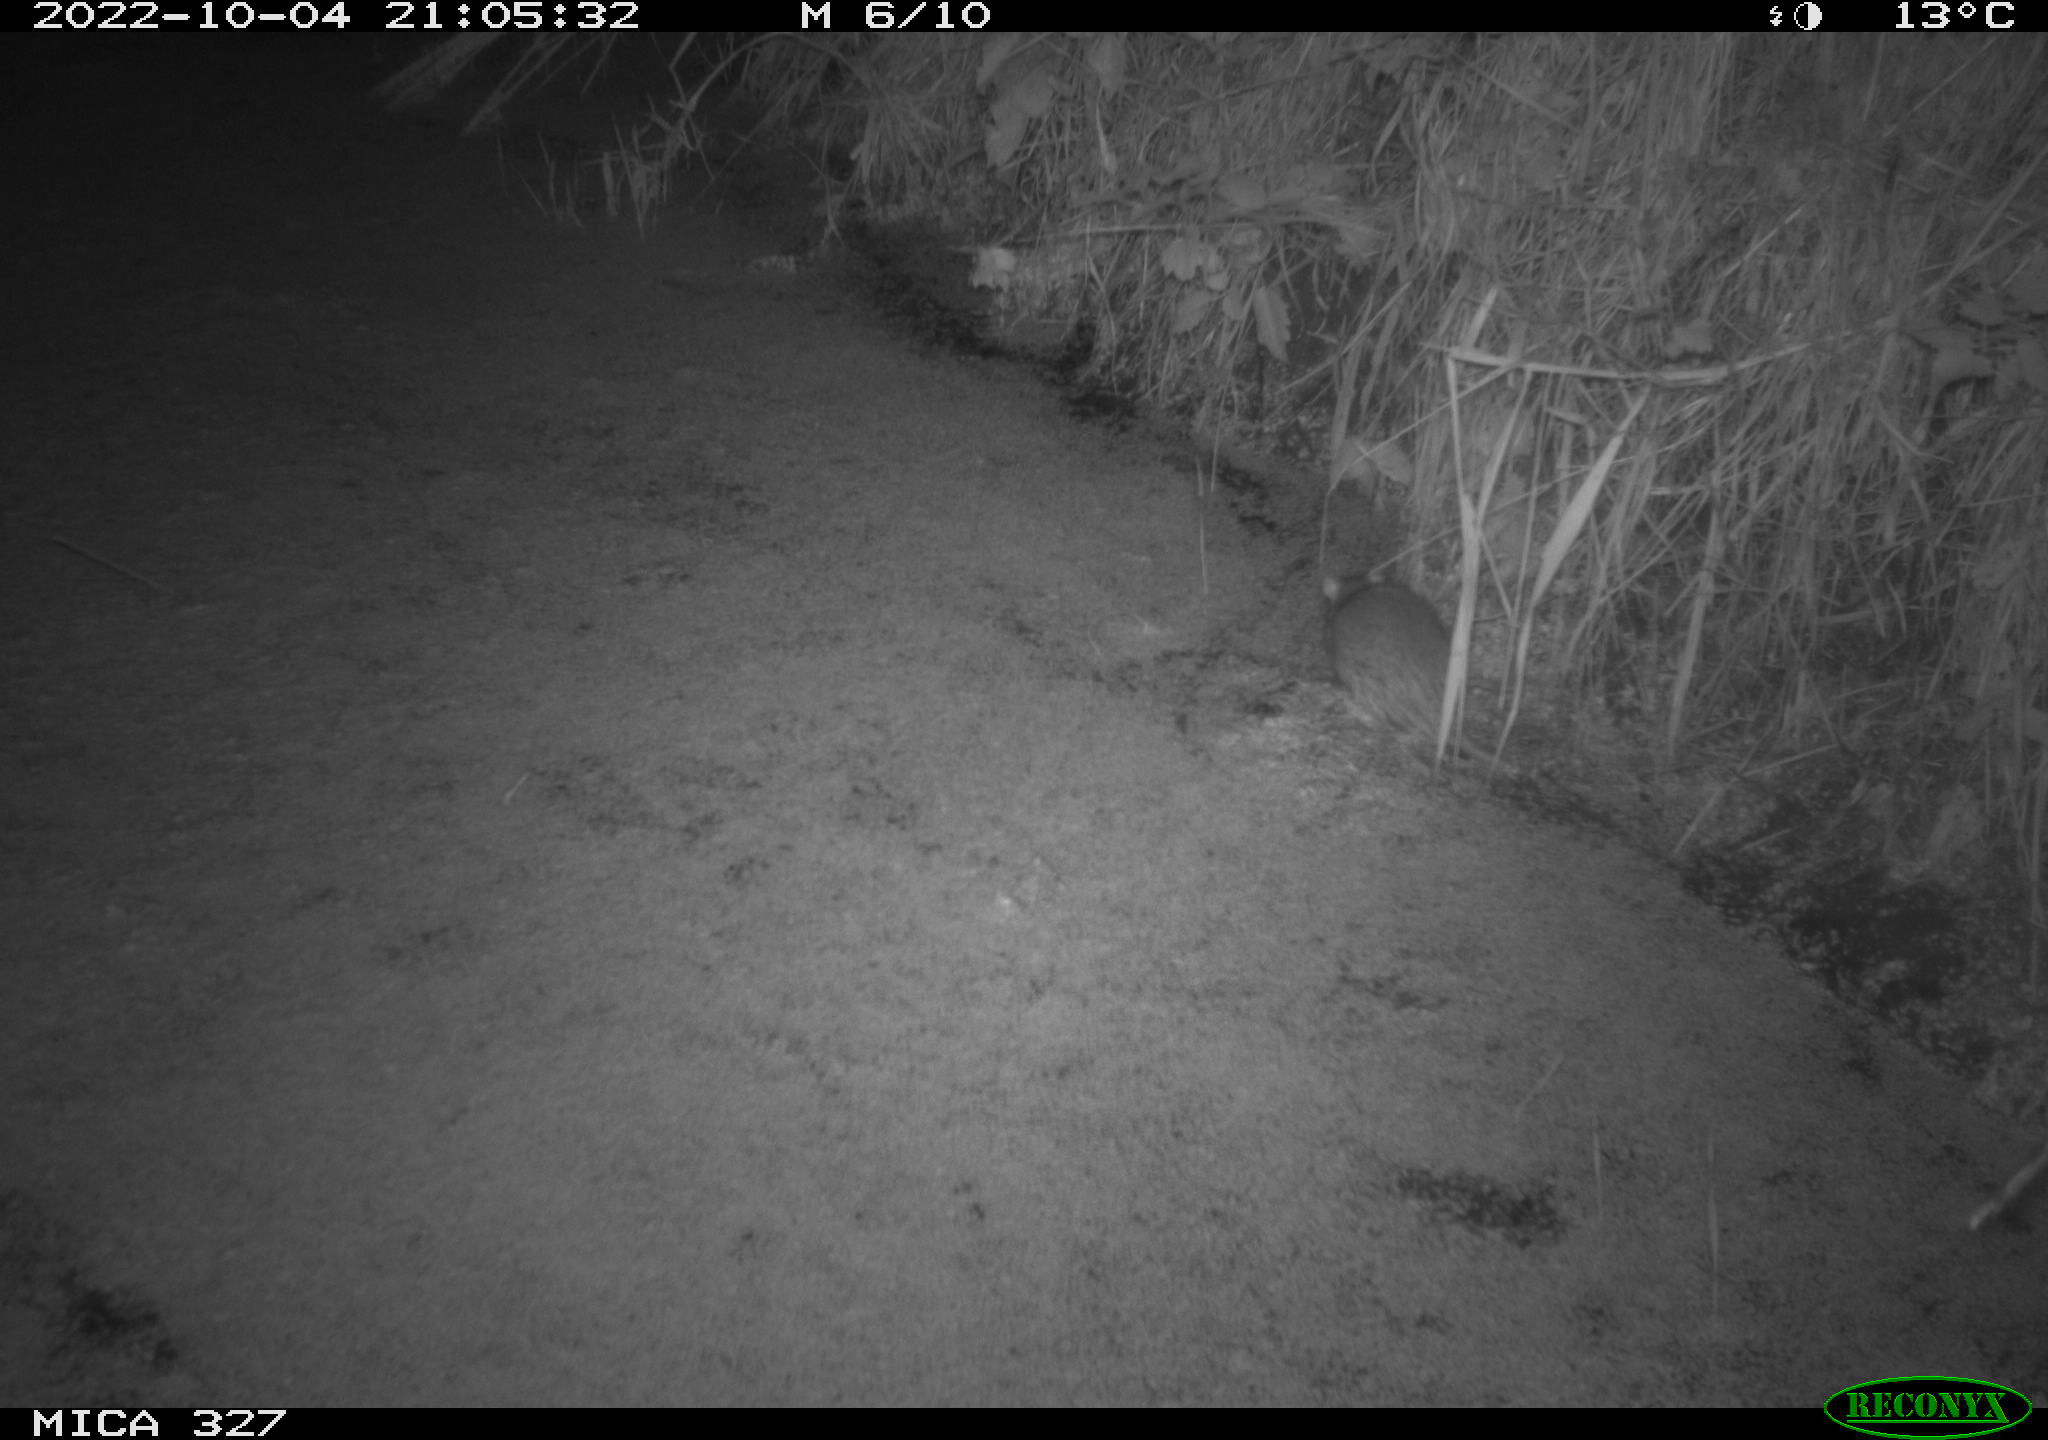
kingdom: Animalia
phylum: Chordata
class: Mammalia
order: Rodentia
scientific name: Rodentia
